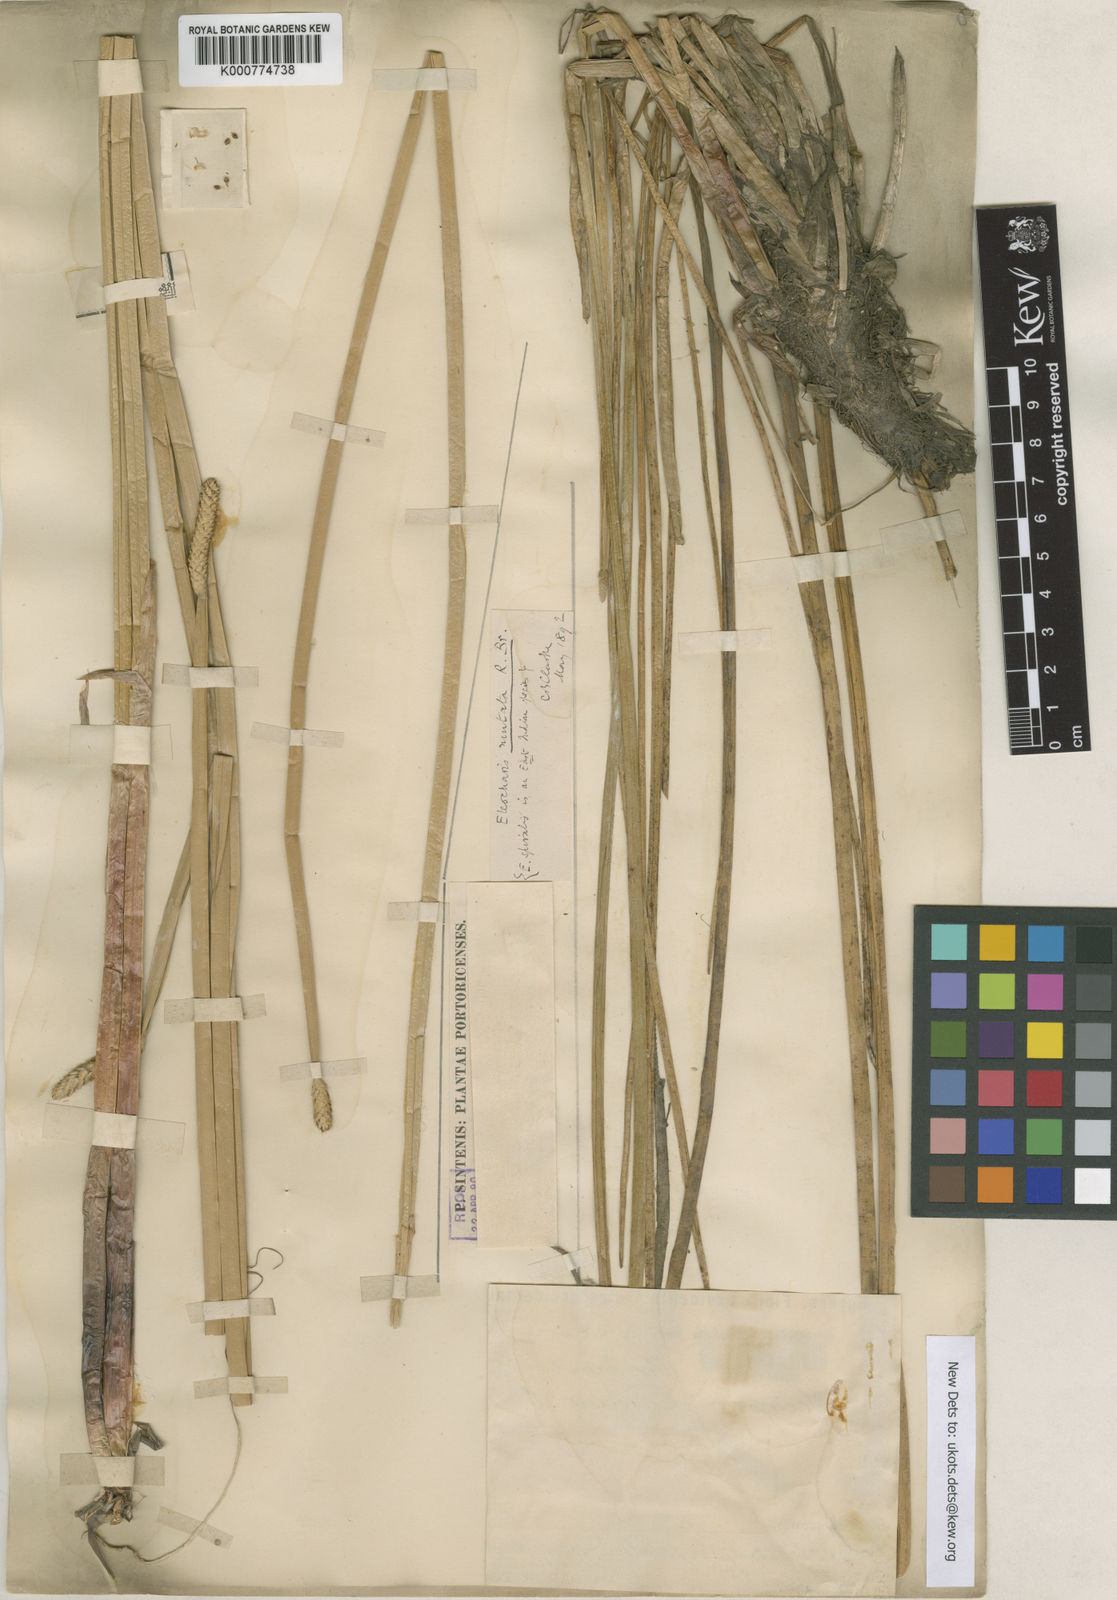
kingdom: Plantae
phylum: Tracheophyta
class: Liliopsida
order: Poales
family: Cyperaceae
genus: Eleocharis
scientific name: Eleocharis mutata
